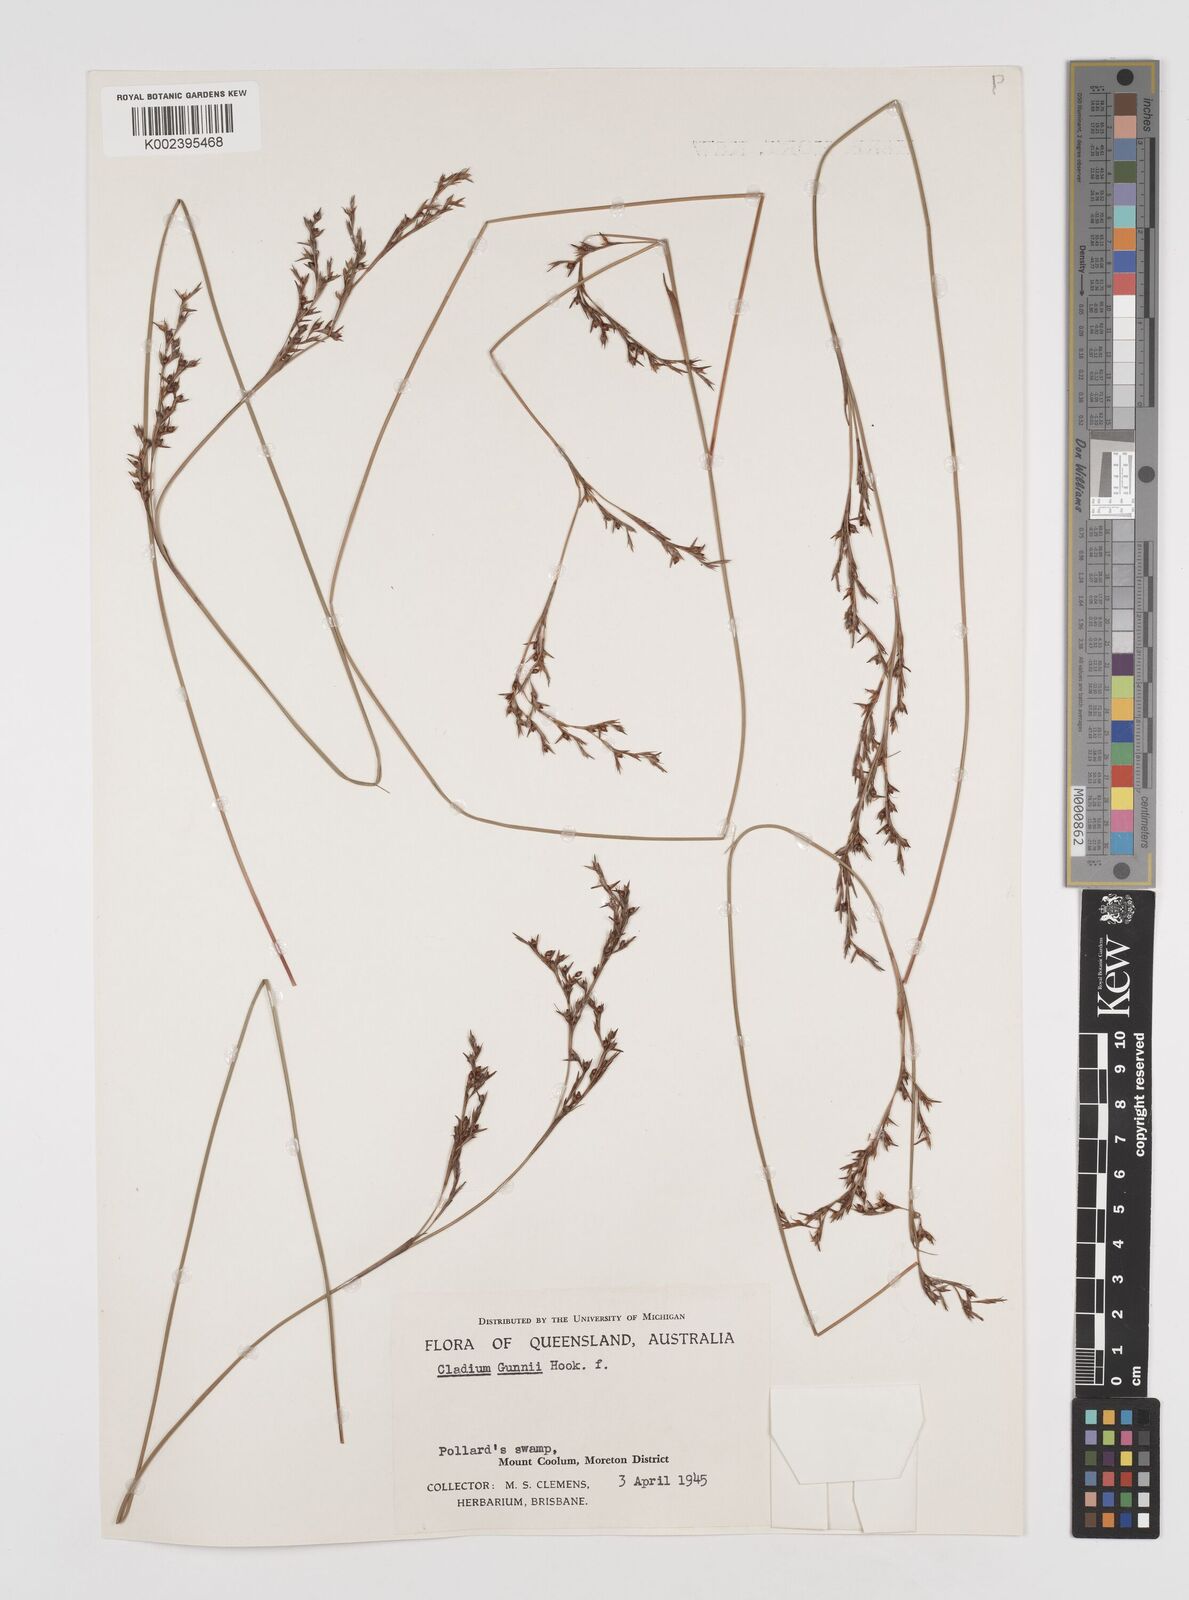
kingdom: Plantae
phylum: Tracheophyta
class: Liliopsida
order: Poales
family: Cyperaceae
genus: Machaerina
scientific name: Machaerina gunnii
